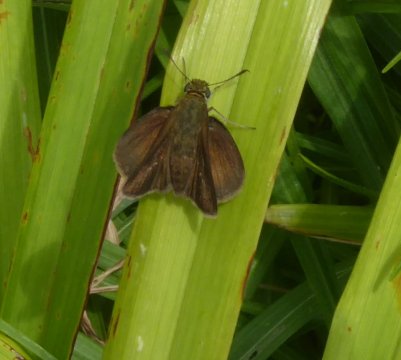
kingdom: Animalia
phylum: Arthropoda
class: Insecta
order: Lepidoptera
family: Hesperiidae
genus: Euphyes
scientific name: Euphyes vestris
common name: Dun Skipper
